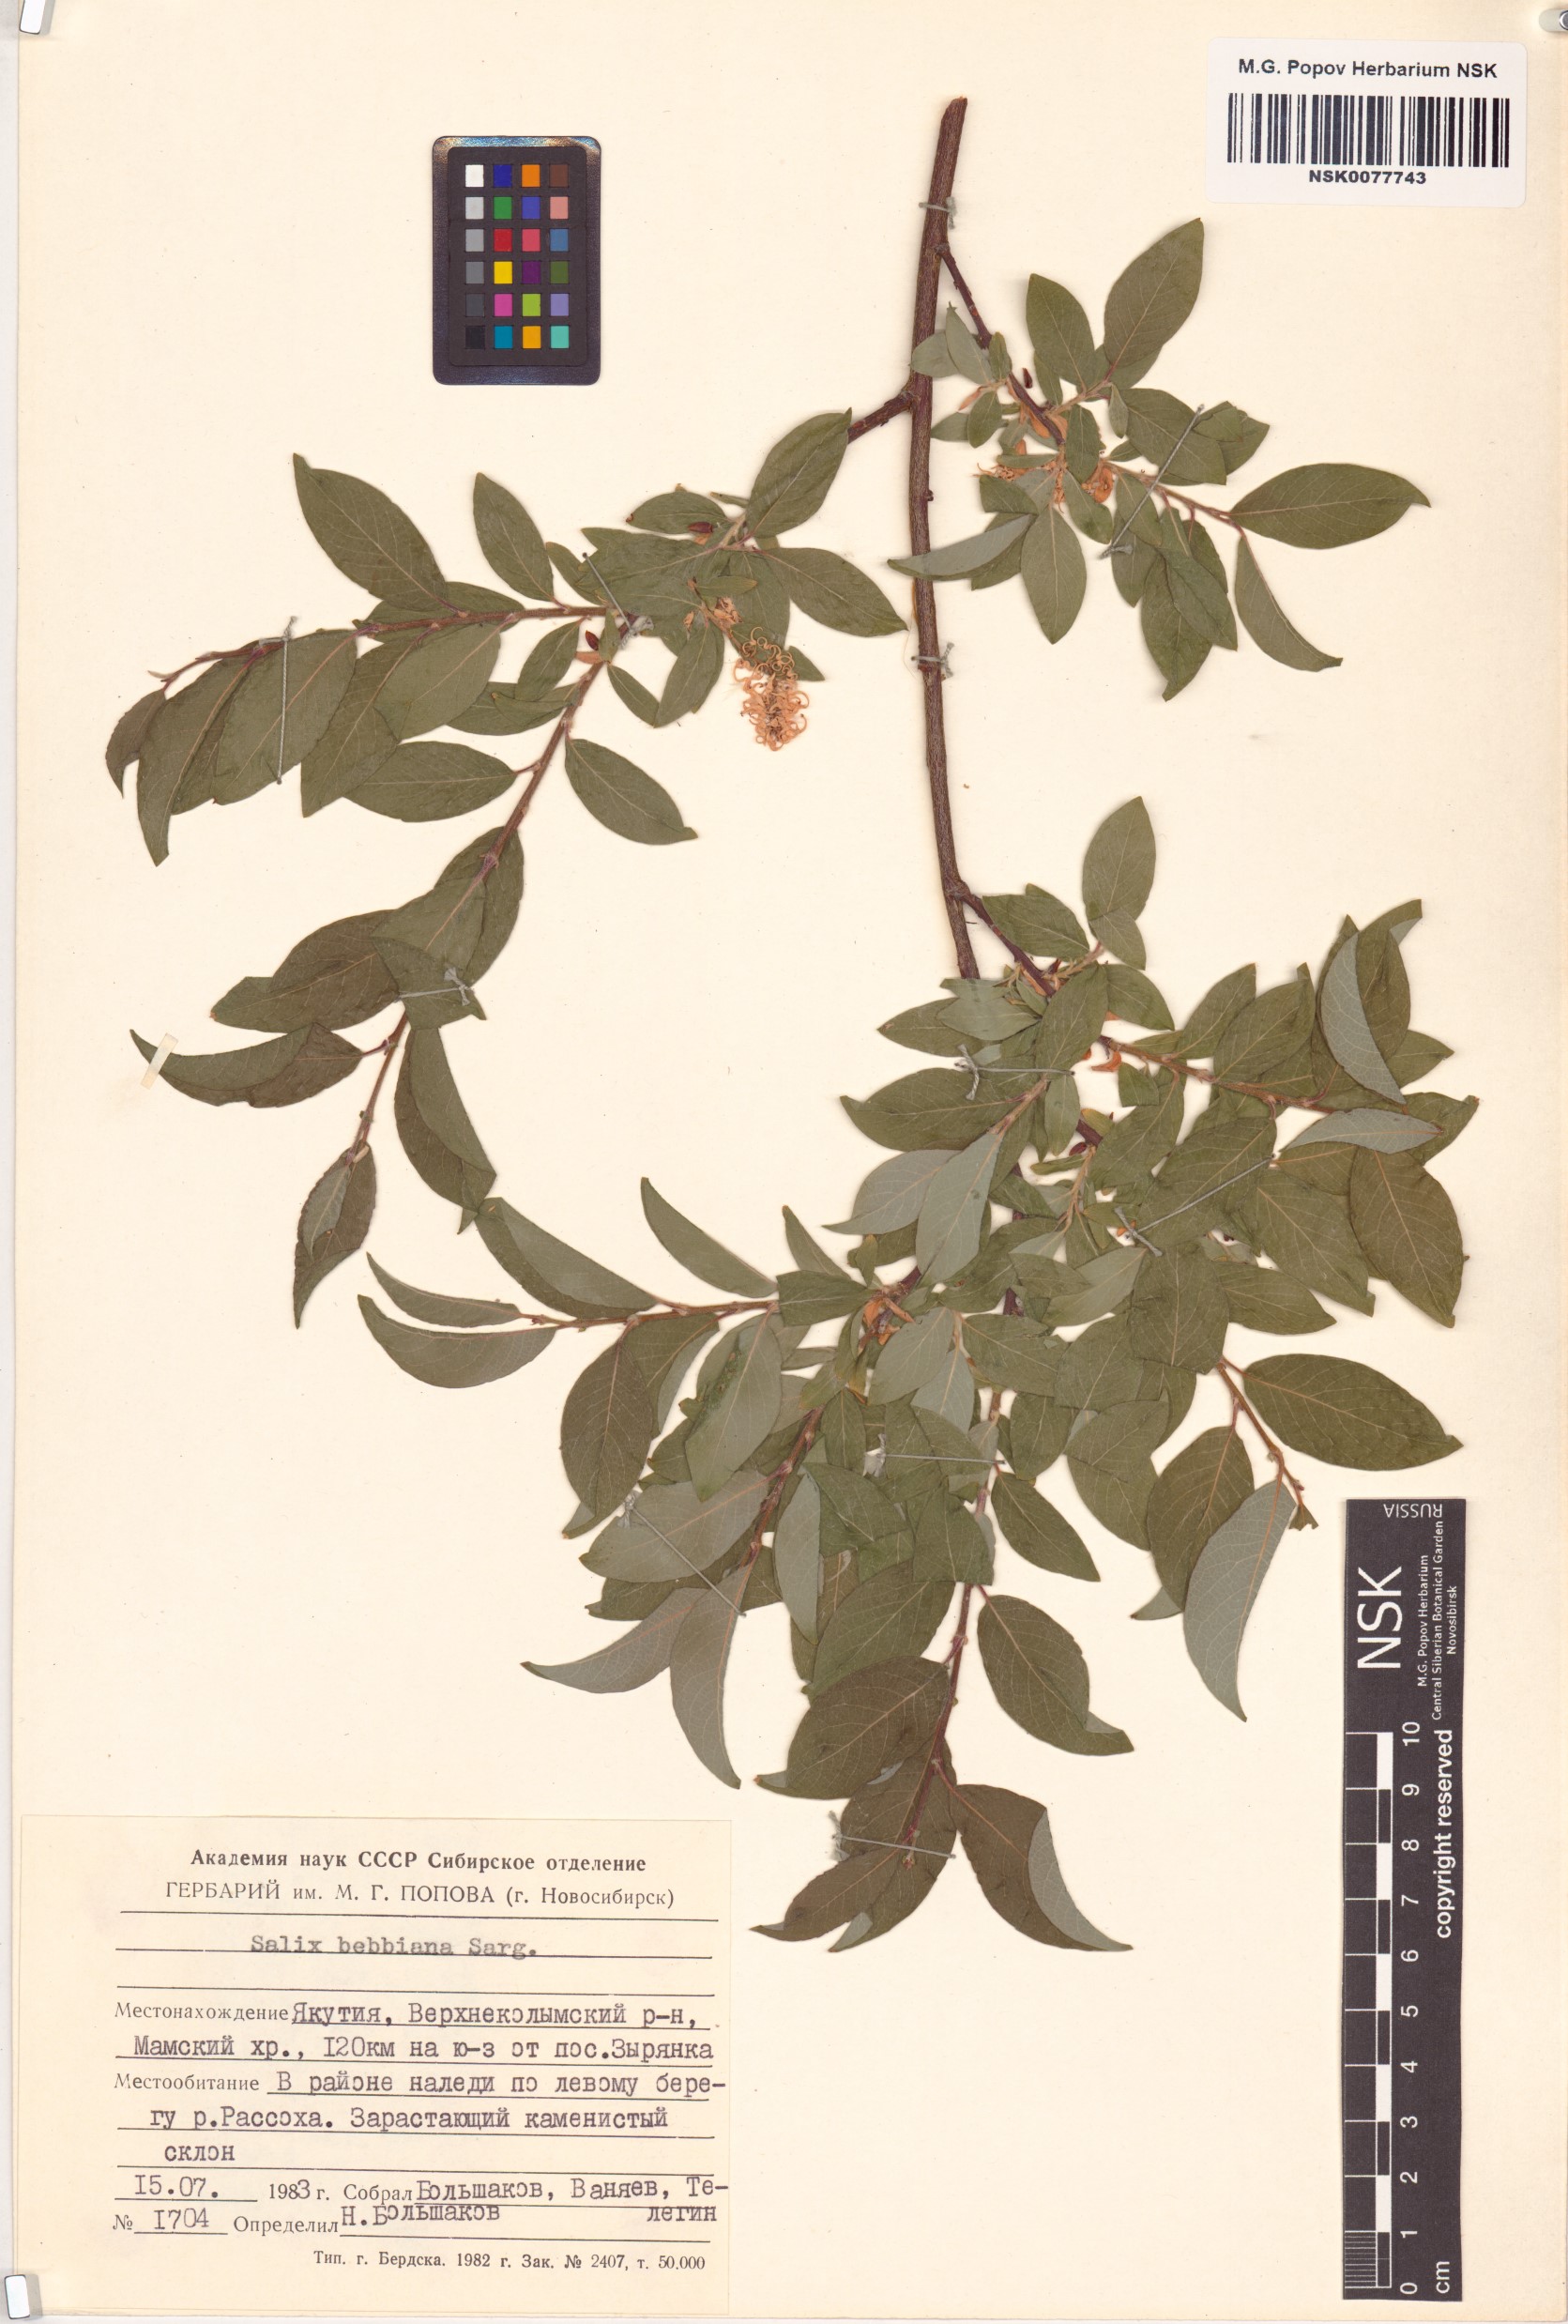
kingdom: Plantae
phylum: Tracheophyta
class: Magnoliopsida
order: Malpighiales
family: Salicaceae
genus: Salix
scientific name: Salix bebbiana
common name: Bebb's willow
